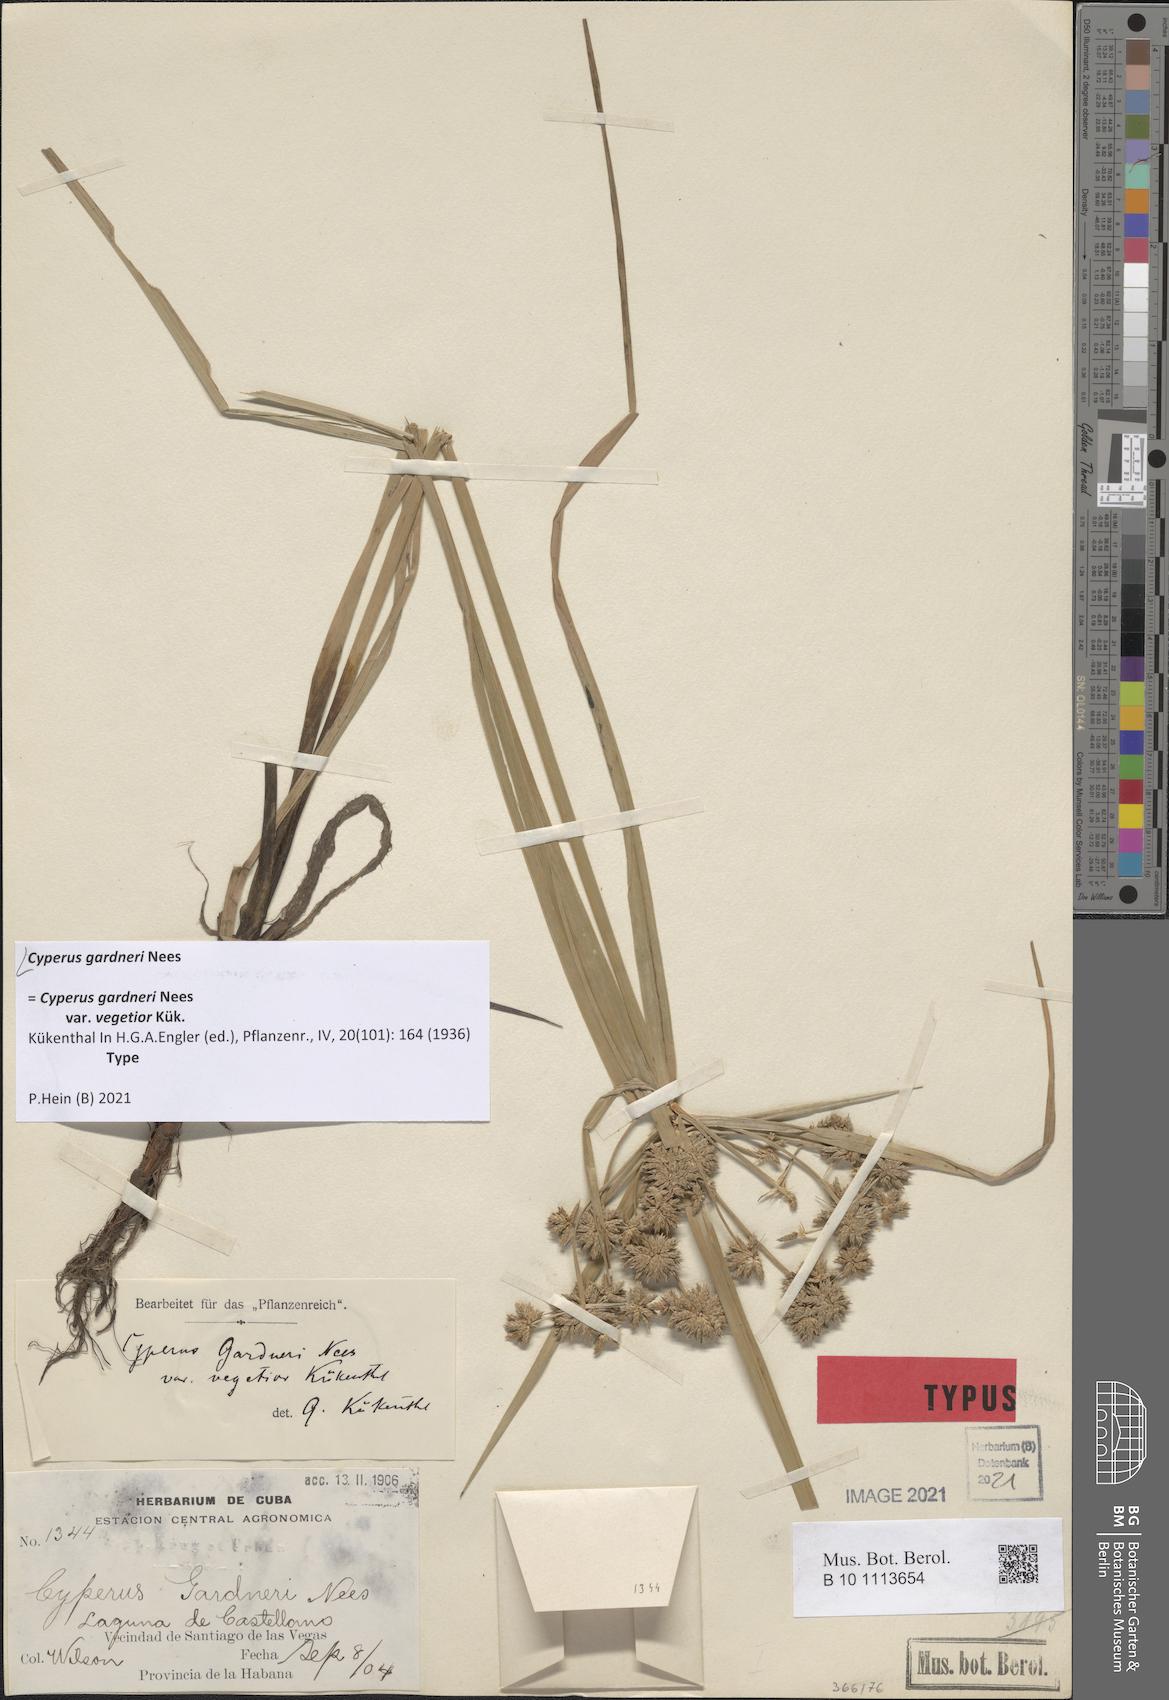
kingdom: Plantae
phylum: Tracheophyta
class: Liliopsida
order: Poales
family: Cyperaceae
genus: Cyperus
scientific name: Cyperus gardneri
